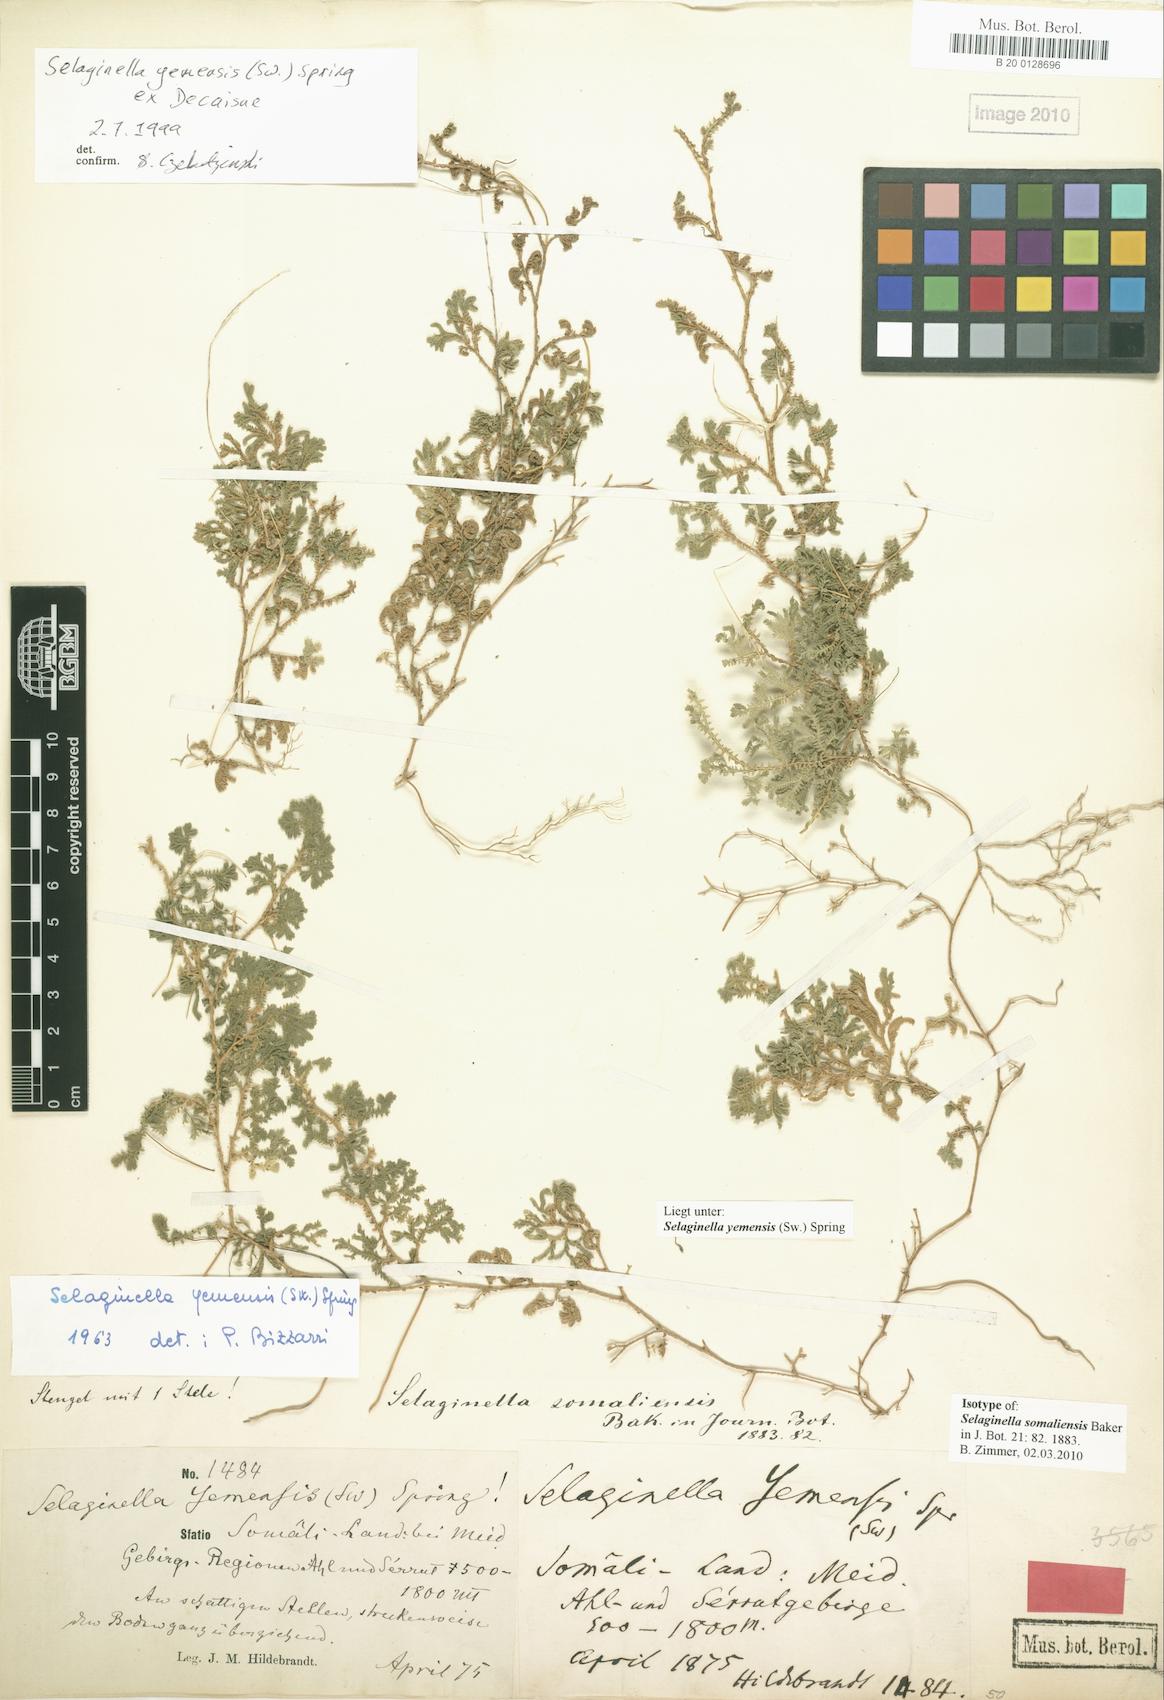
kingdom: Plantae
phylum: Tracheophyta
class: Lycopodiopsida
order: Selaginellales
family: Selaginellaceae
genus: Selaginella
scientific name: Selaginella yemensis
